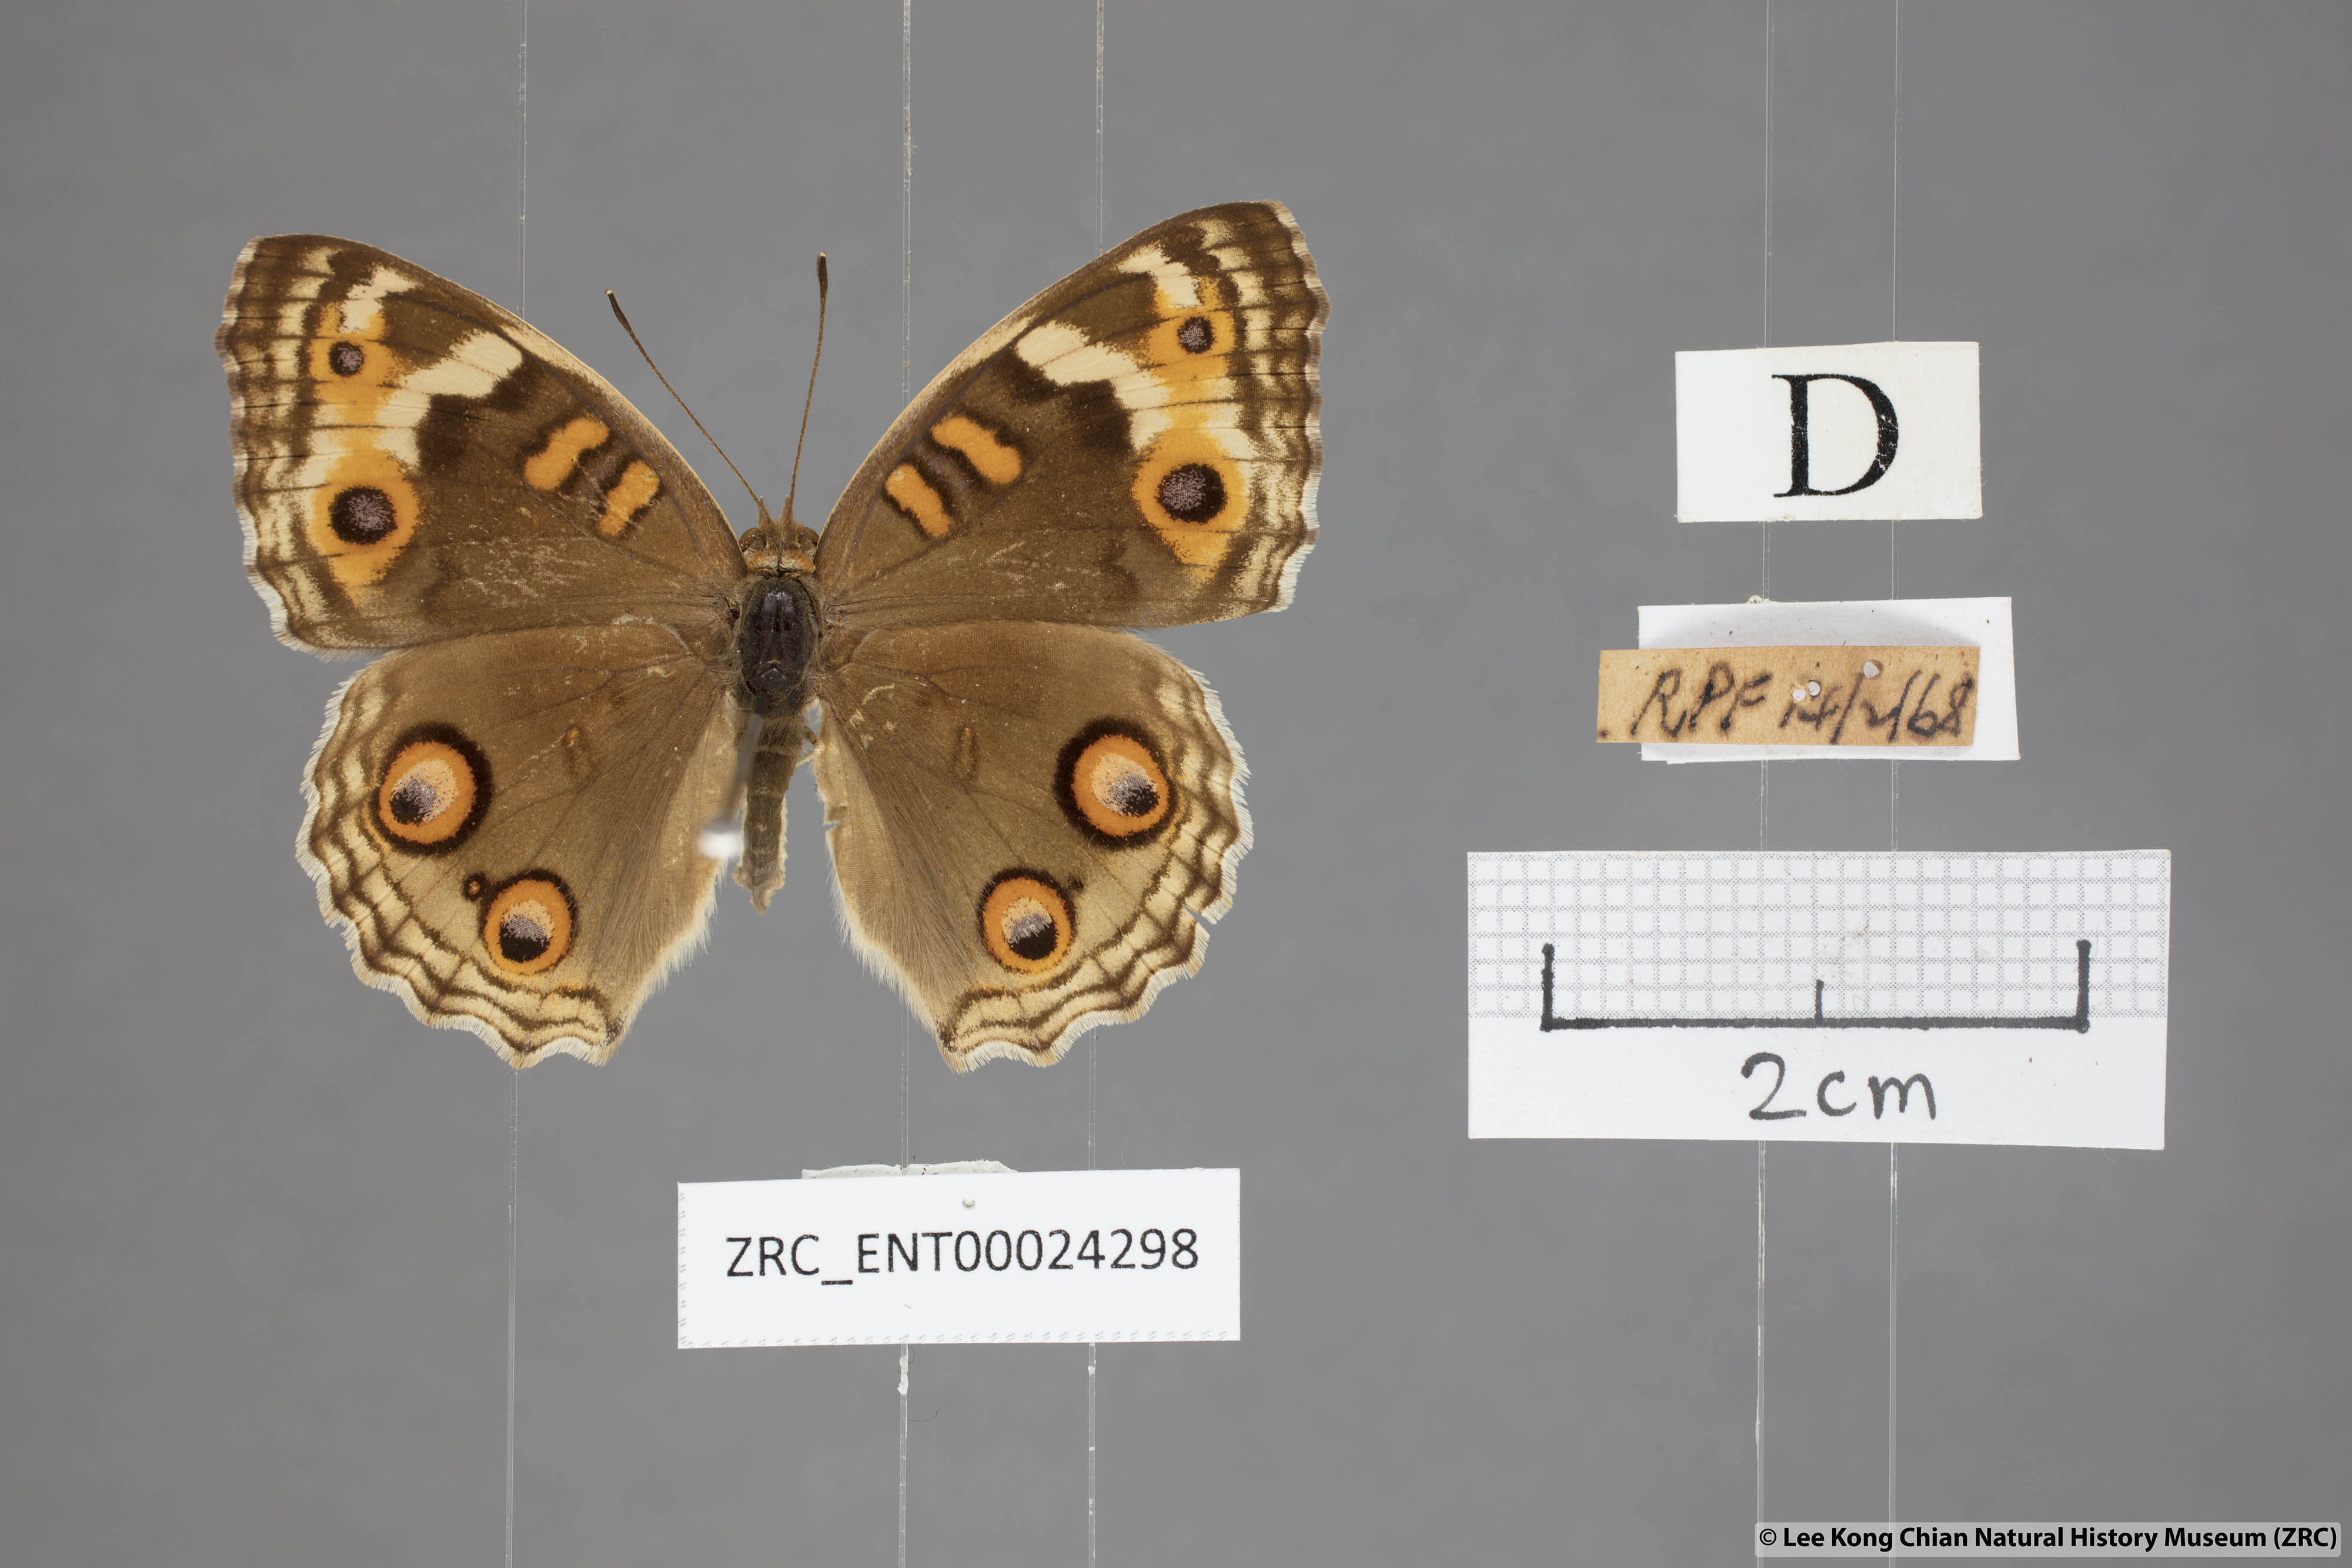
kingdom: Animalia
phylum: Arthropoda
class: Insecta
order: Lepidoptera
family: Nymphalidae
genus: Junonia
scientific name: Junonia orithya
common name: Blue pansy
